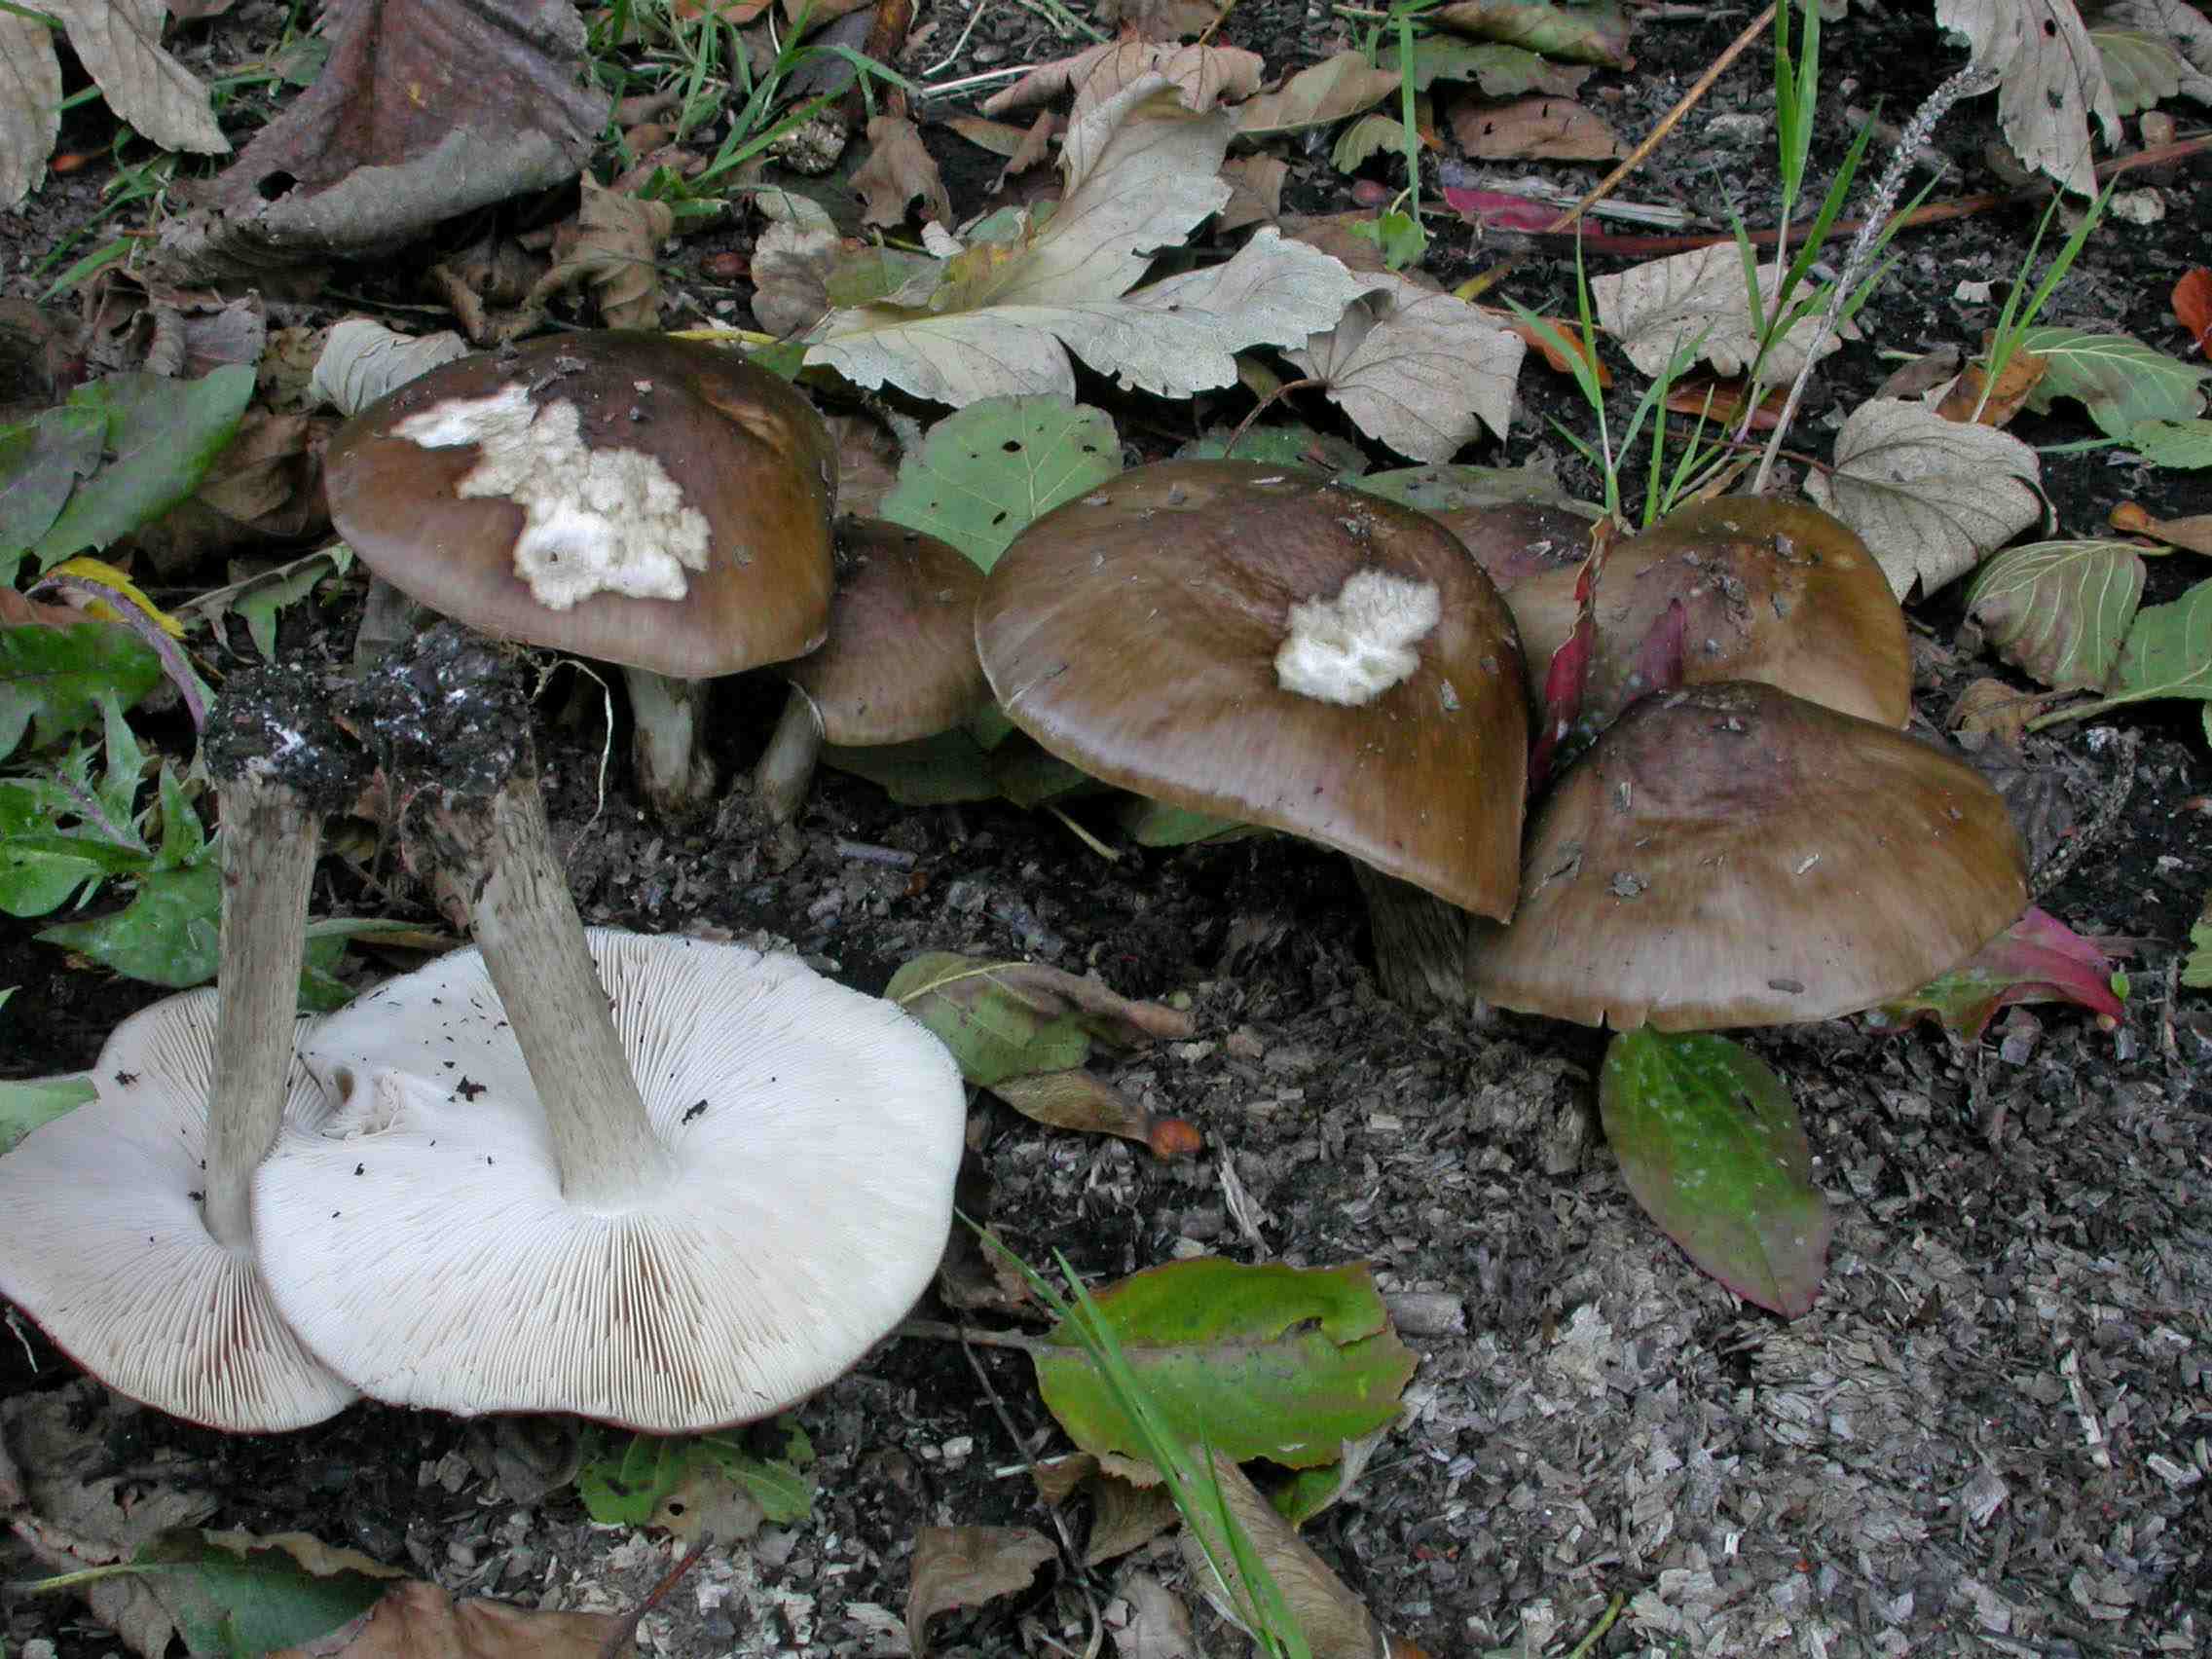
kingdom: Fungi
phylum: Basidiomycota
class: Agaricomycetes
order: Agaricales
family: Pluteaceae
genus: Pluteus
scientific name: Pluteus cervinus
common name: sodfarvet skærmhat
